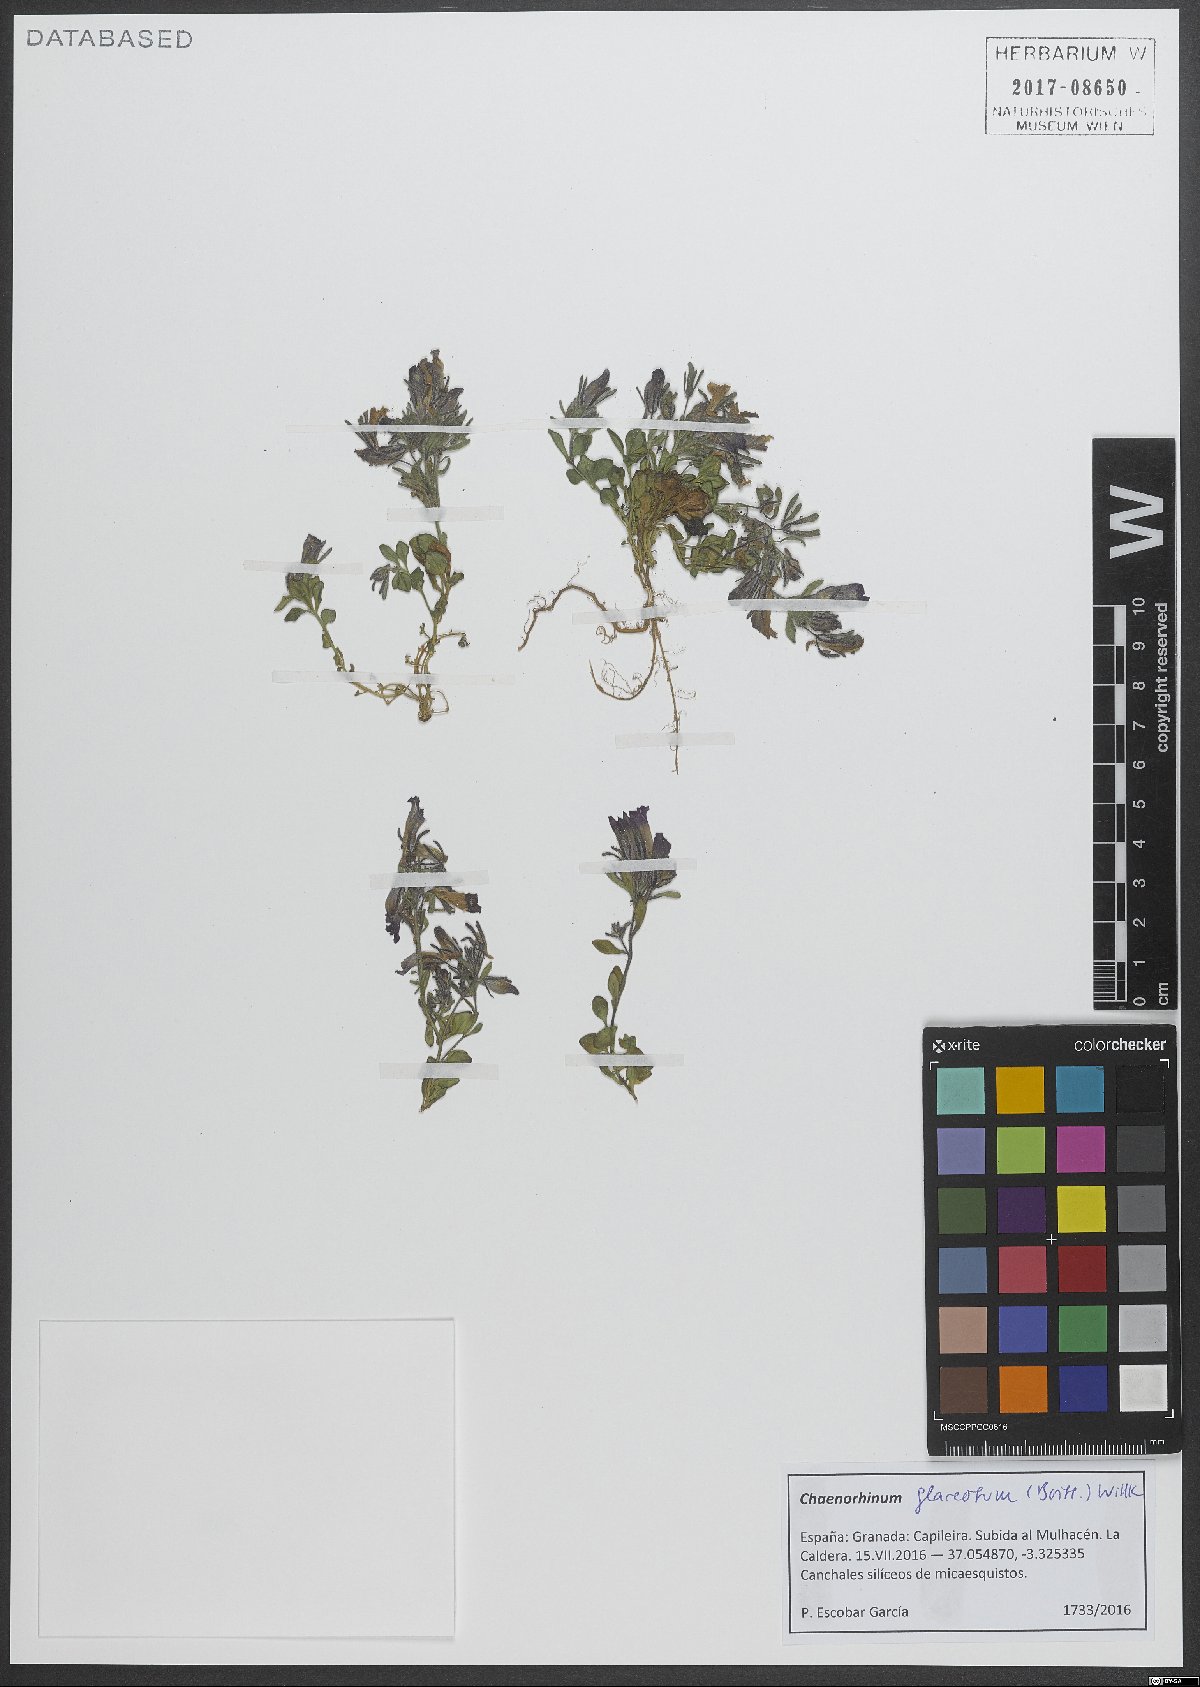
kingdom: Plantae
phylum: Tracheophyta
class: Magnoliopsida
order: Lamiales
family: Plantaginaceae
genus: Chaenorhinum
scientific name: Chaenorhinum glareosum
